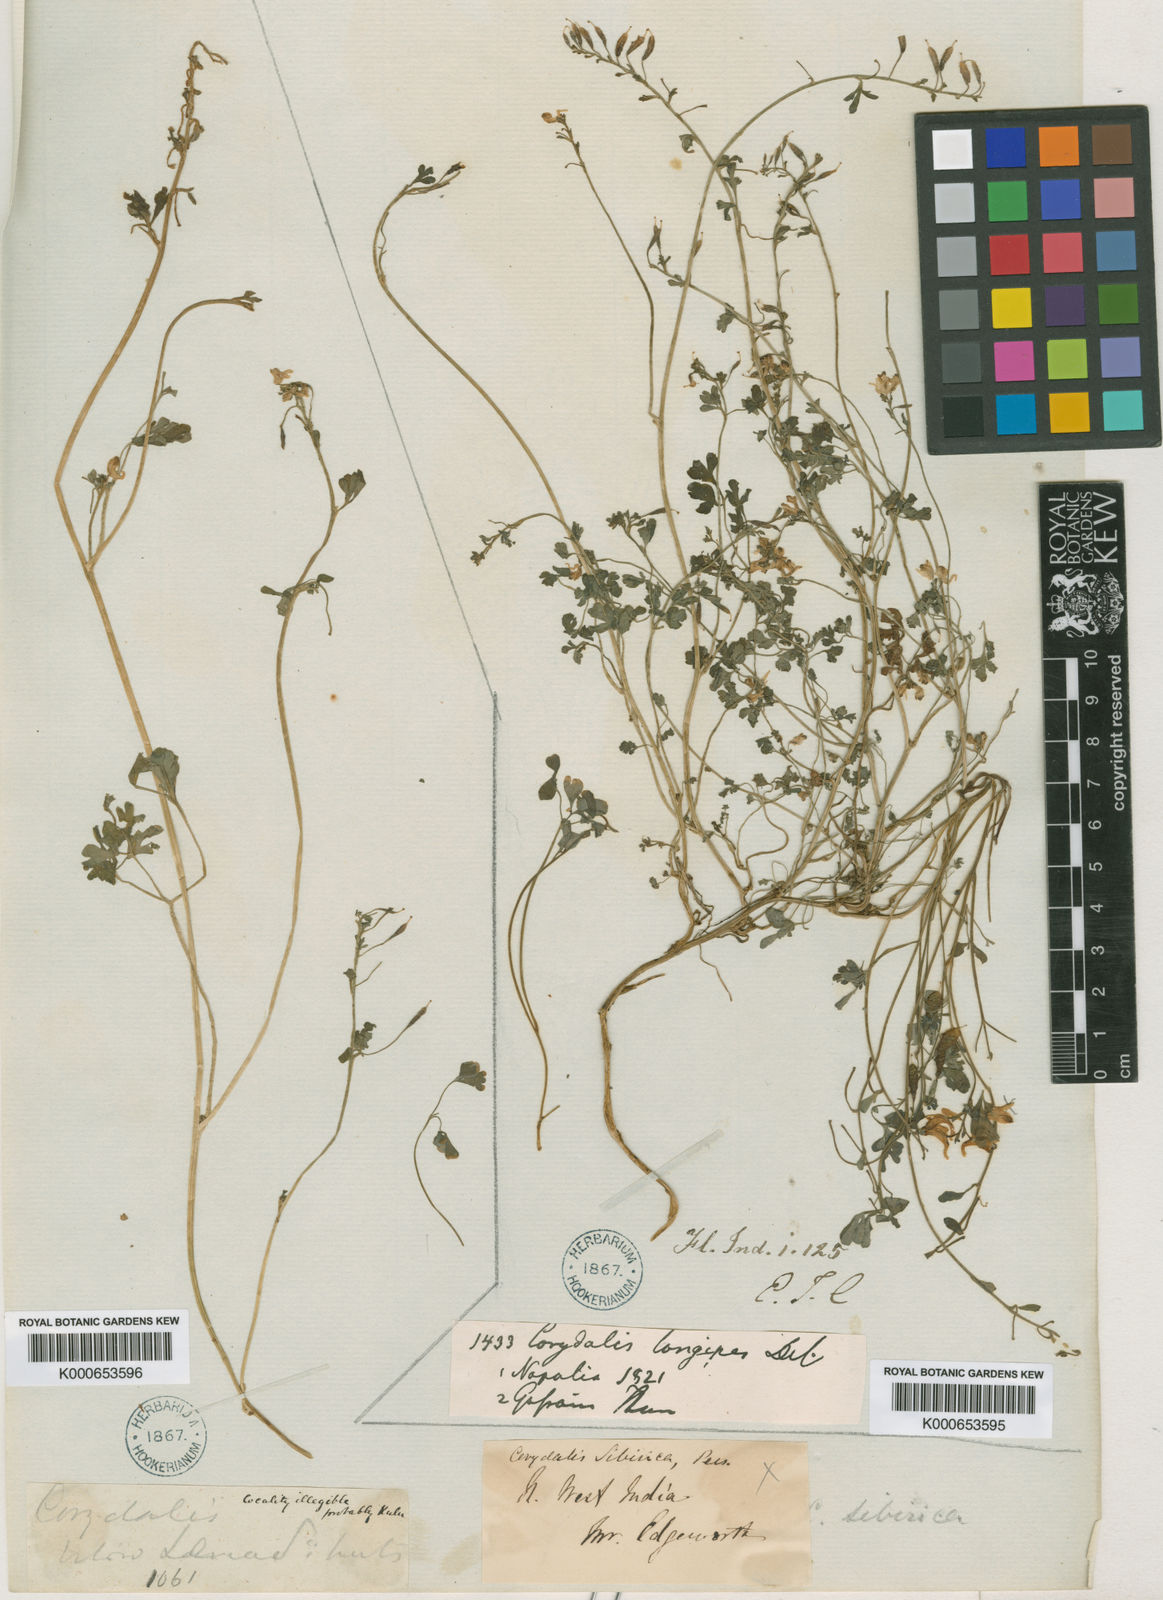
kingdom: Plantae
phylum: Tracheophyta
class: Magnoliopsida
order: Ranunculales
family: Papaveraceae
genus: Corydalis
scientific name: Corydalis longipes
